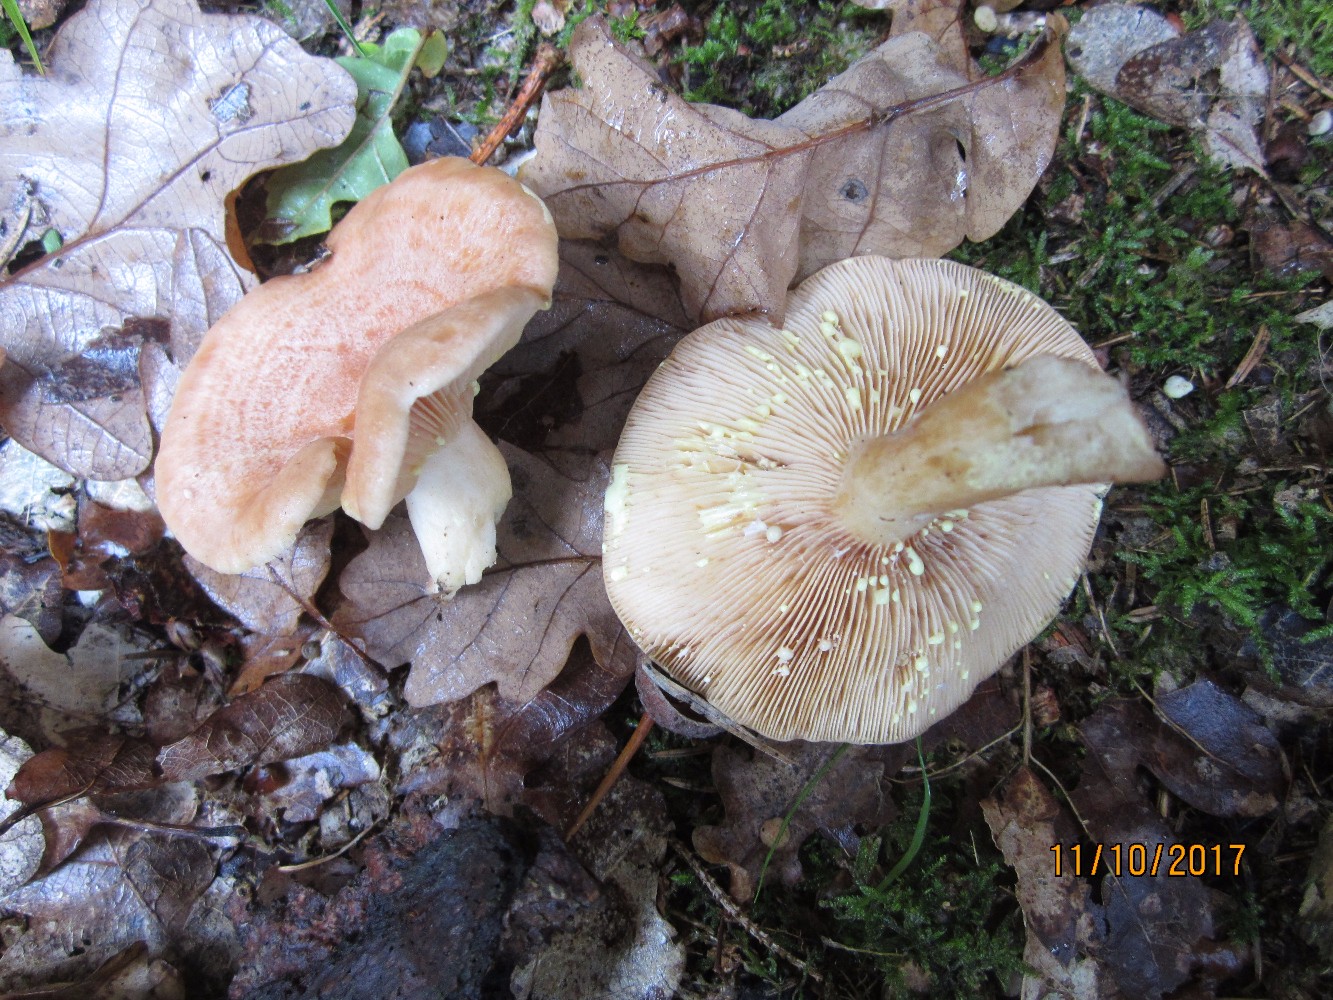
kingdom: Fungi
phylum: Basidiomycota
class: Agaricomycetes
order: Russulales
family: Russulaceae
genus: Lactarius
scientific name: Lactarius chrysorrheus
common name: svovlmælket mælkehat
